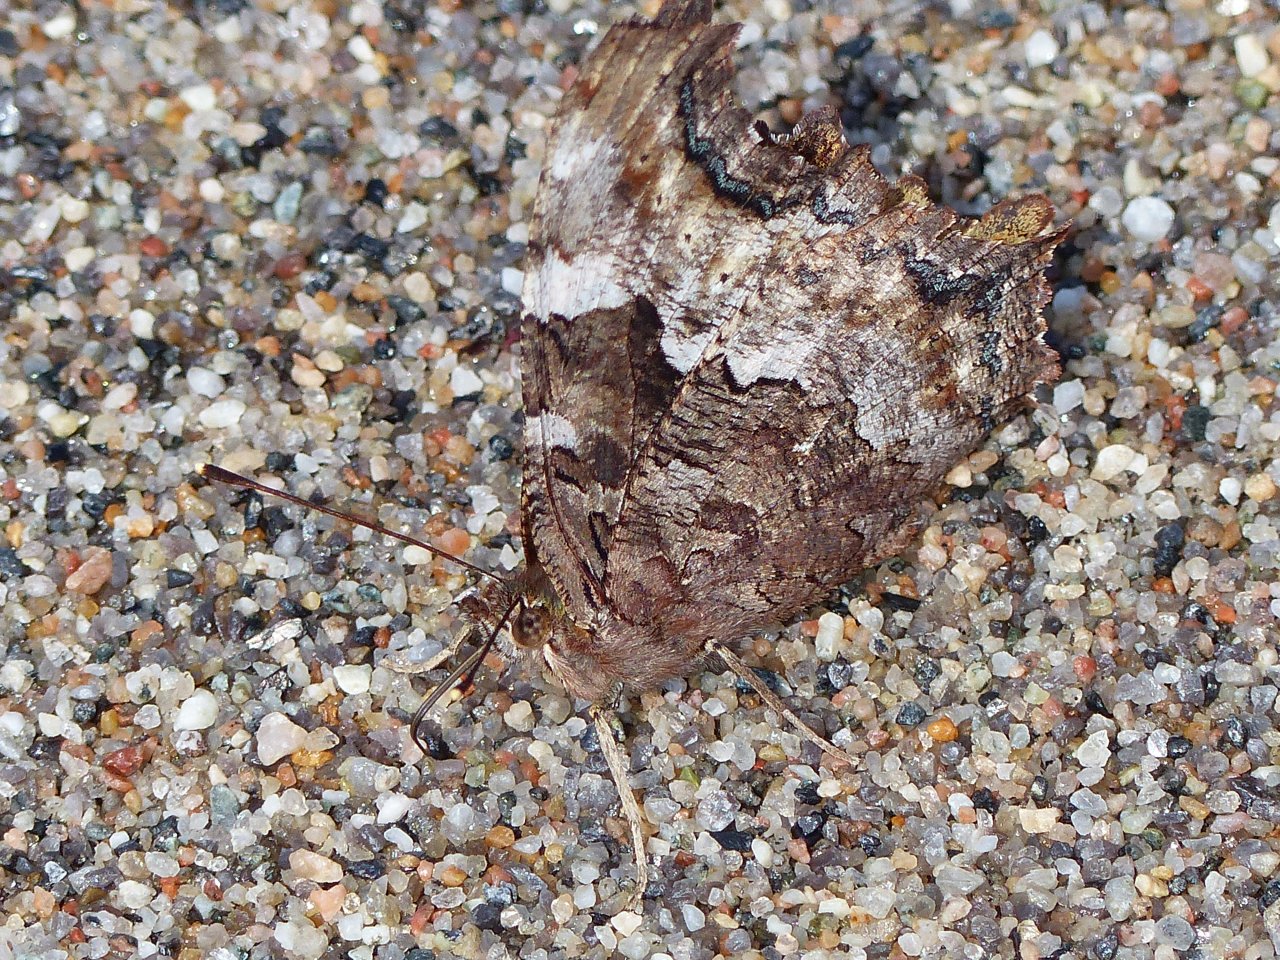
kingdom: Animalia
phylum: Arthropoda
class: Insecta
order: Lepidoptera
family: Nymphalidae
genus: Nymphalis
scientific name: Nymphalis
